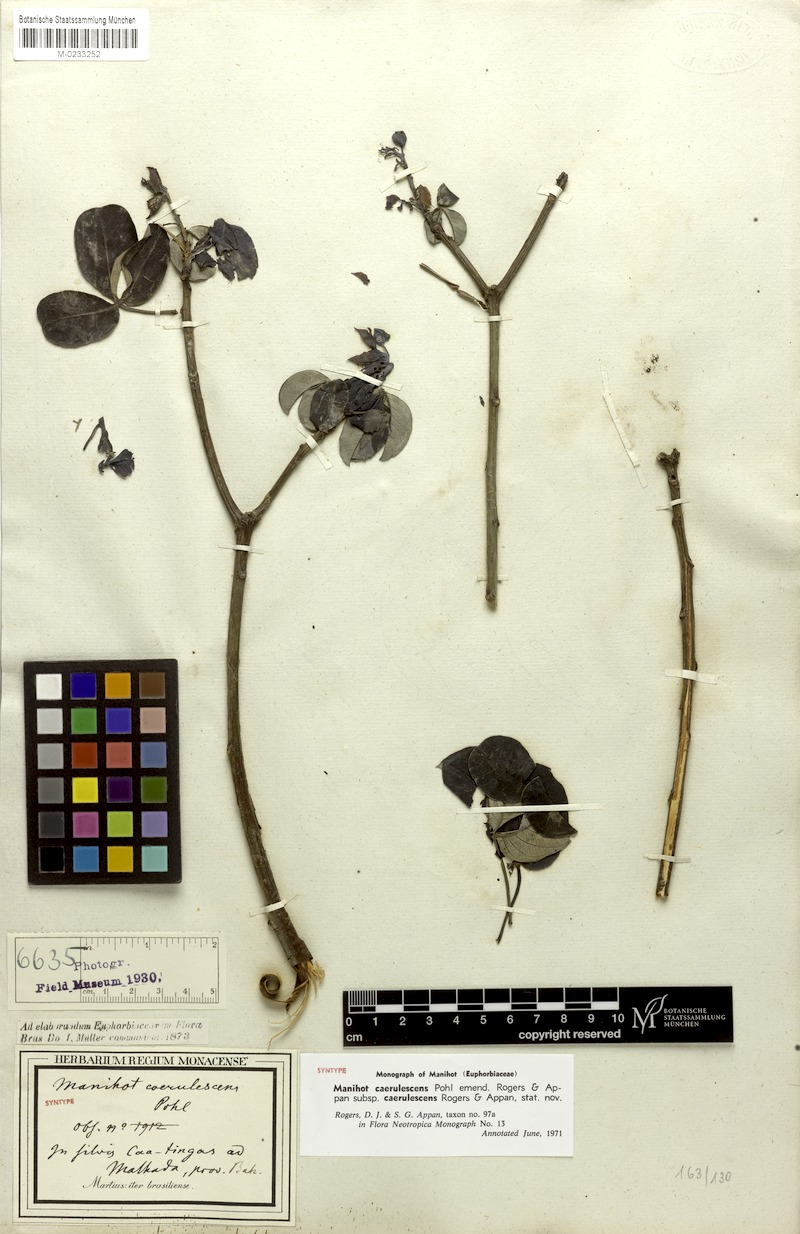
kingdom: Plantae
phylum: Tracheophyta
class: Magnoliopsida
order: Malpighiales
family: Euphorbiaceae
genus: Manihot
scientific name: Manihot caerulescens
